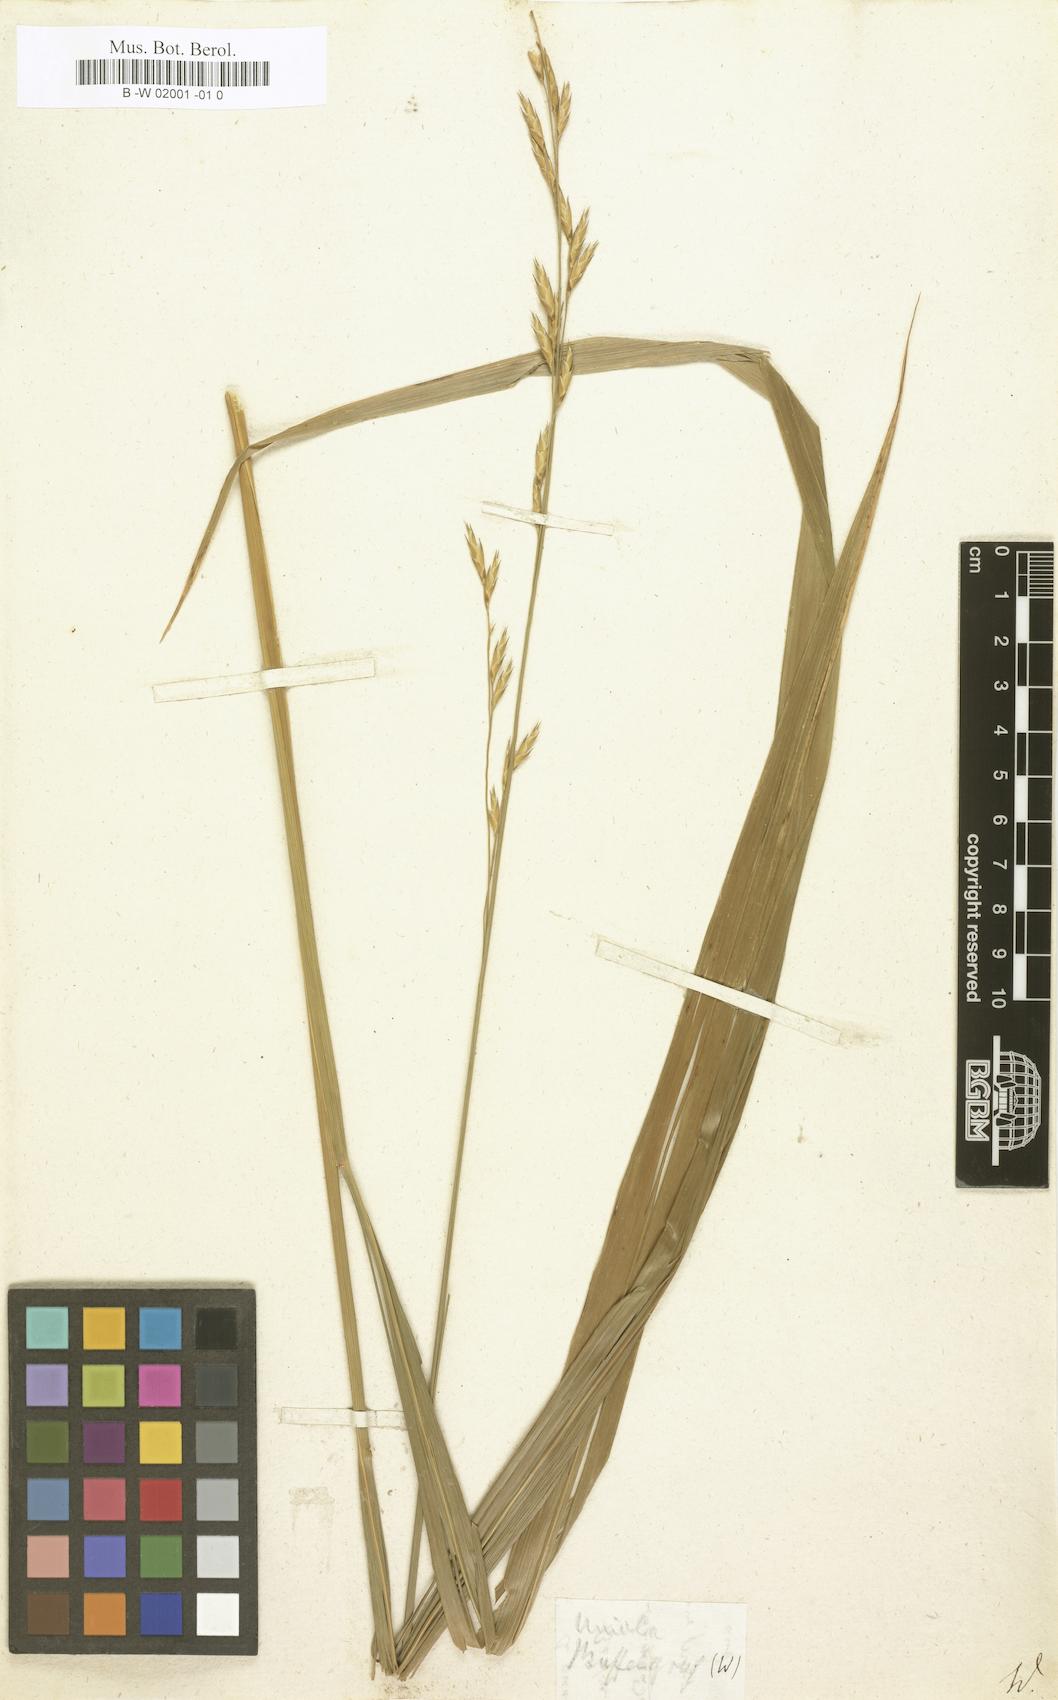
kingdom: Plantae
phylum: Tracheophyta
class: Liliopsida
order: Poales
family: Poaceae
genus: Halopyrum
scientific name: Halopyrum mucronatum
